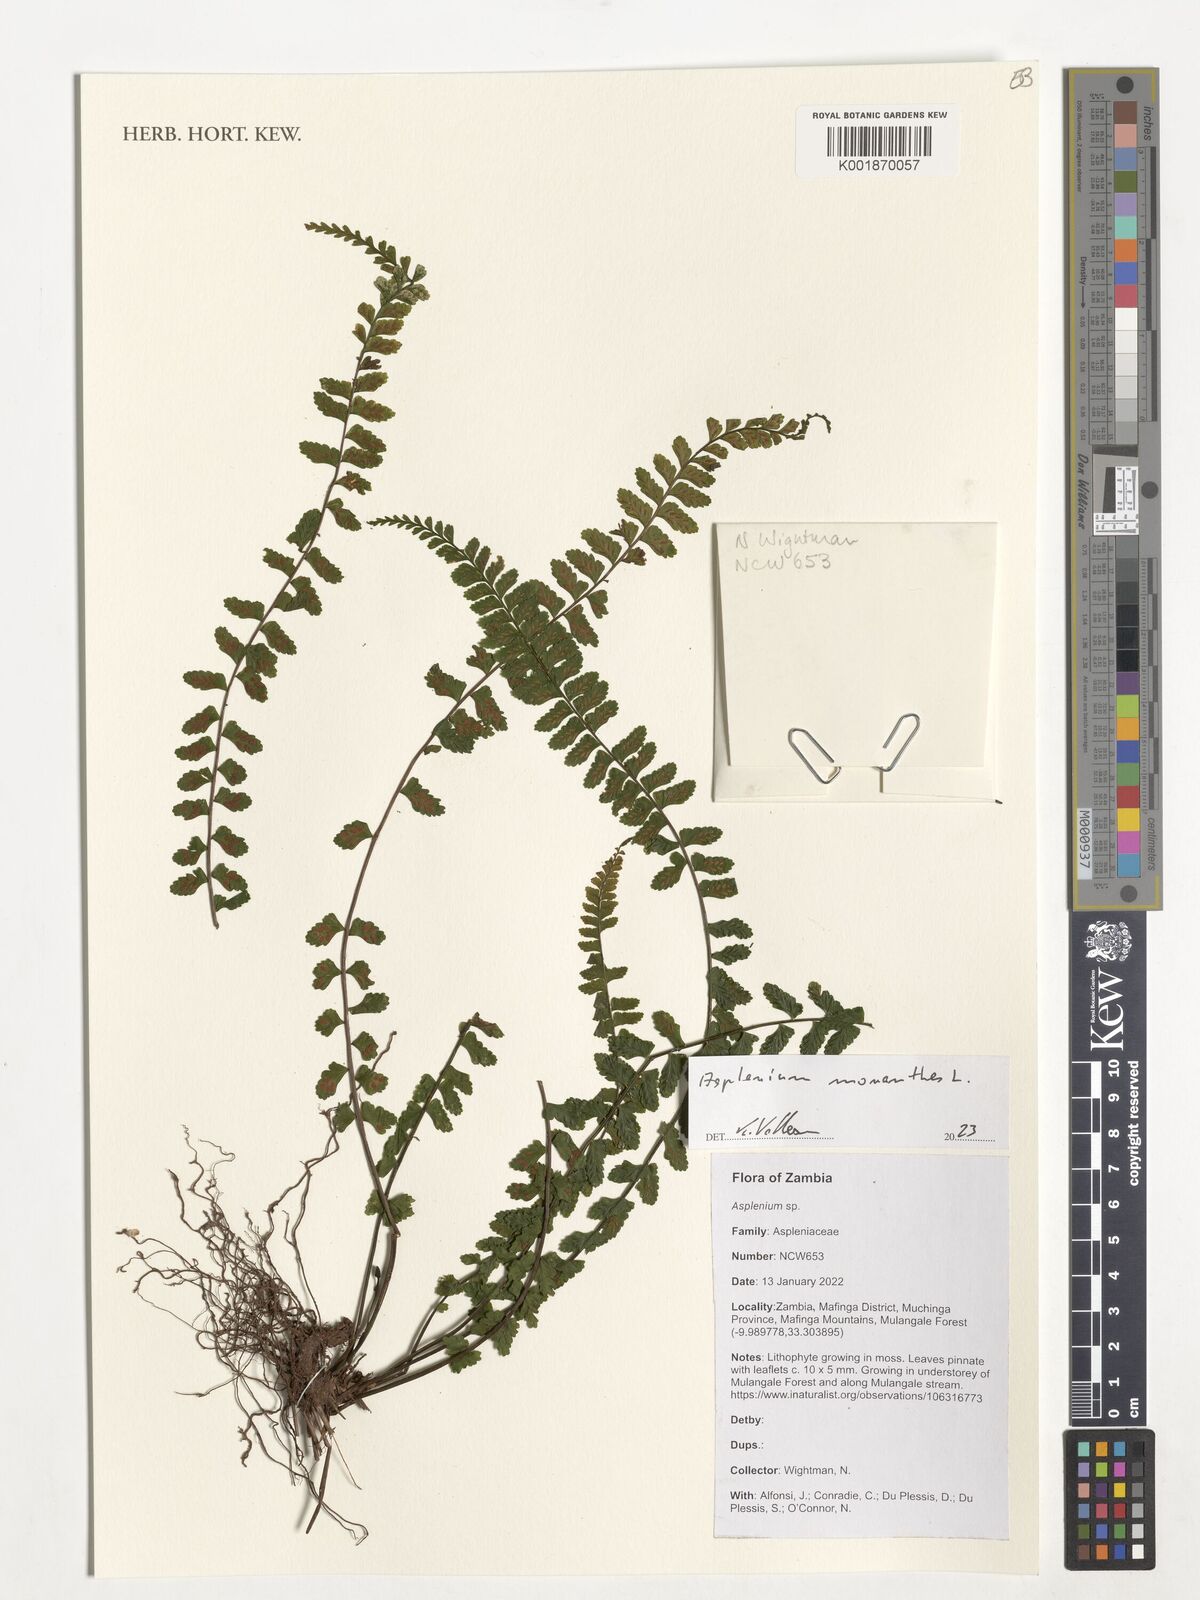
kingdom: Plantae
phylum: Tracheophyta
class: Polypodiopsida
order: Polypodiales
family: Aspleniaceae
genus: Asplenium
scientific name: Asplenium monanthes
